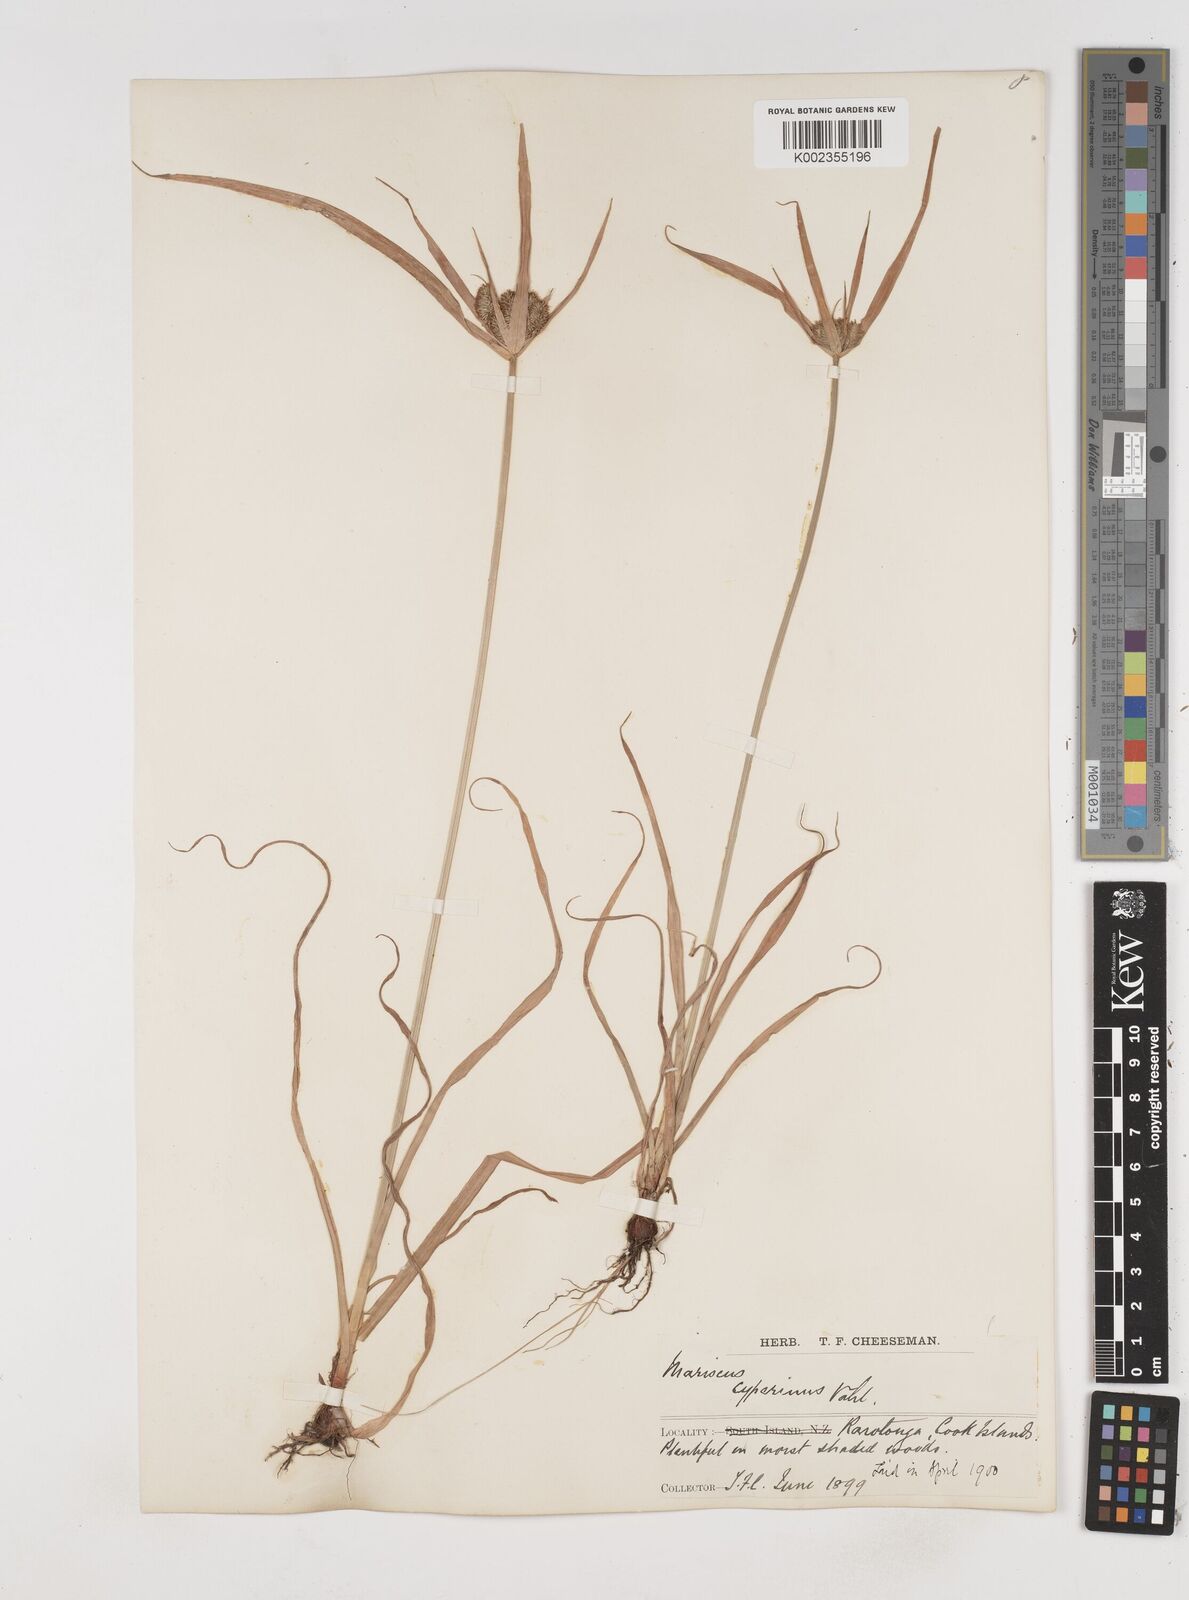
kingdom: Plantae
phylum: Tracheophyta
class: Liliopsida
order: Poales
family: Cyperaceae
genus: Cyperus
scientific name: Cyperus cyperinus
